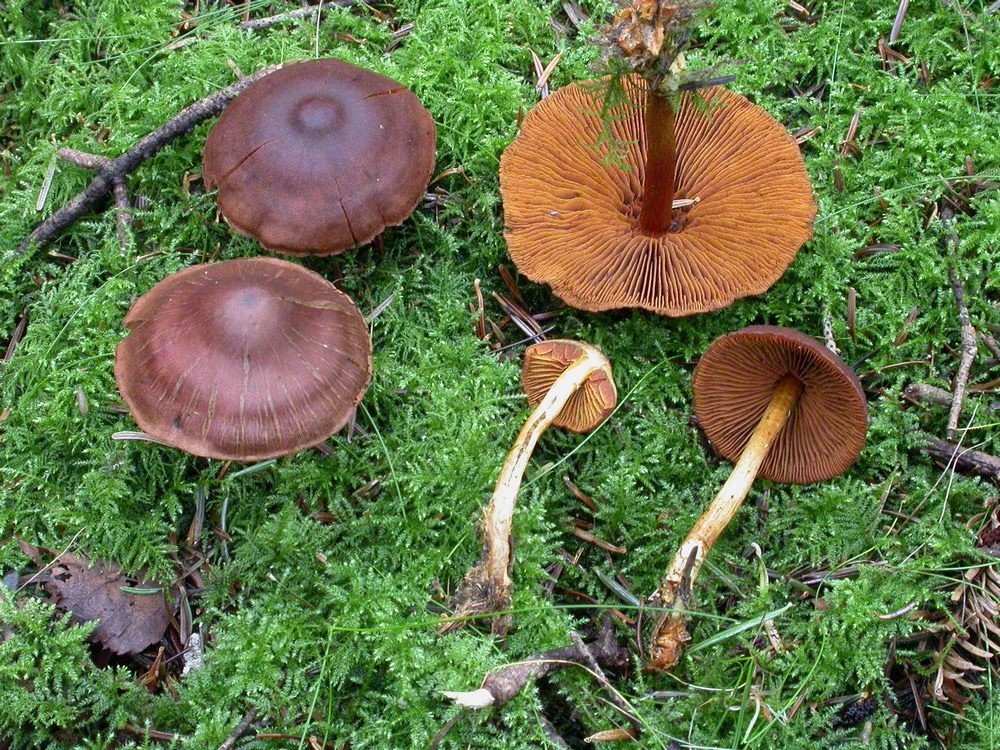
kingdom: Fungi
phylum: Basidiomycota
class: Agaricomycetes
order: Agaricales
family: Cortinariaceae
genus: Cortinarius
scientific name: Cortinarius cinnamomeus
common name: kanel-slørhat
